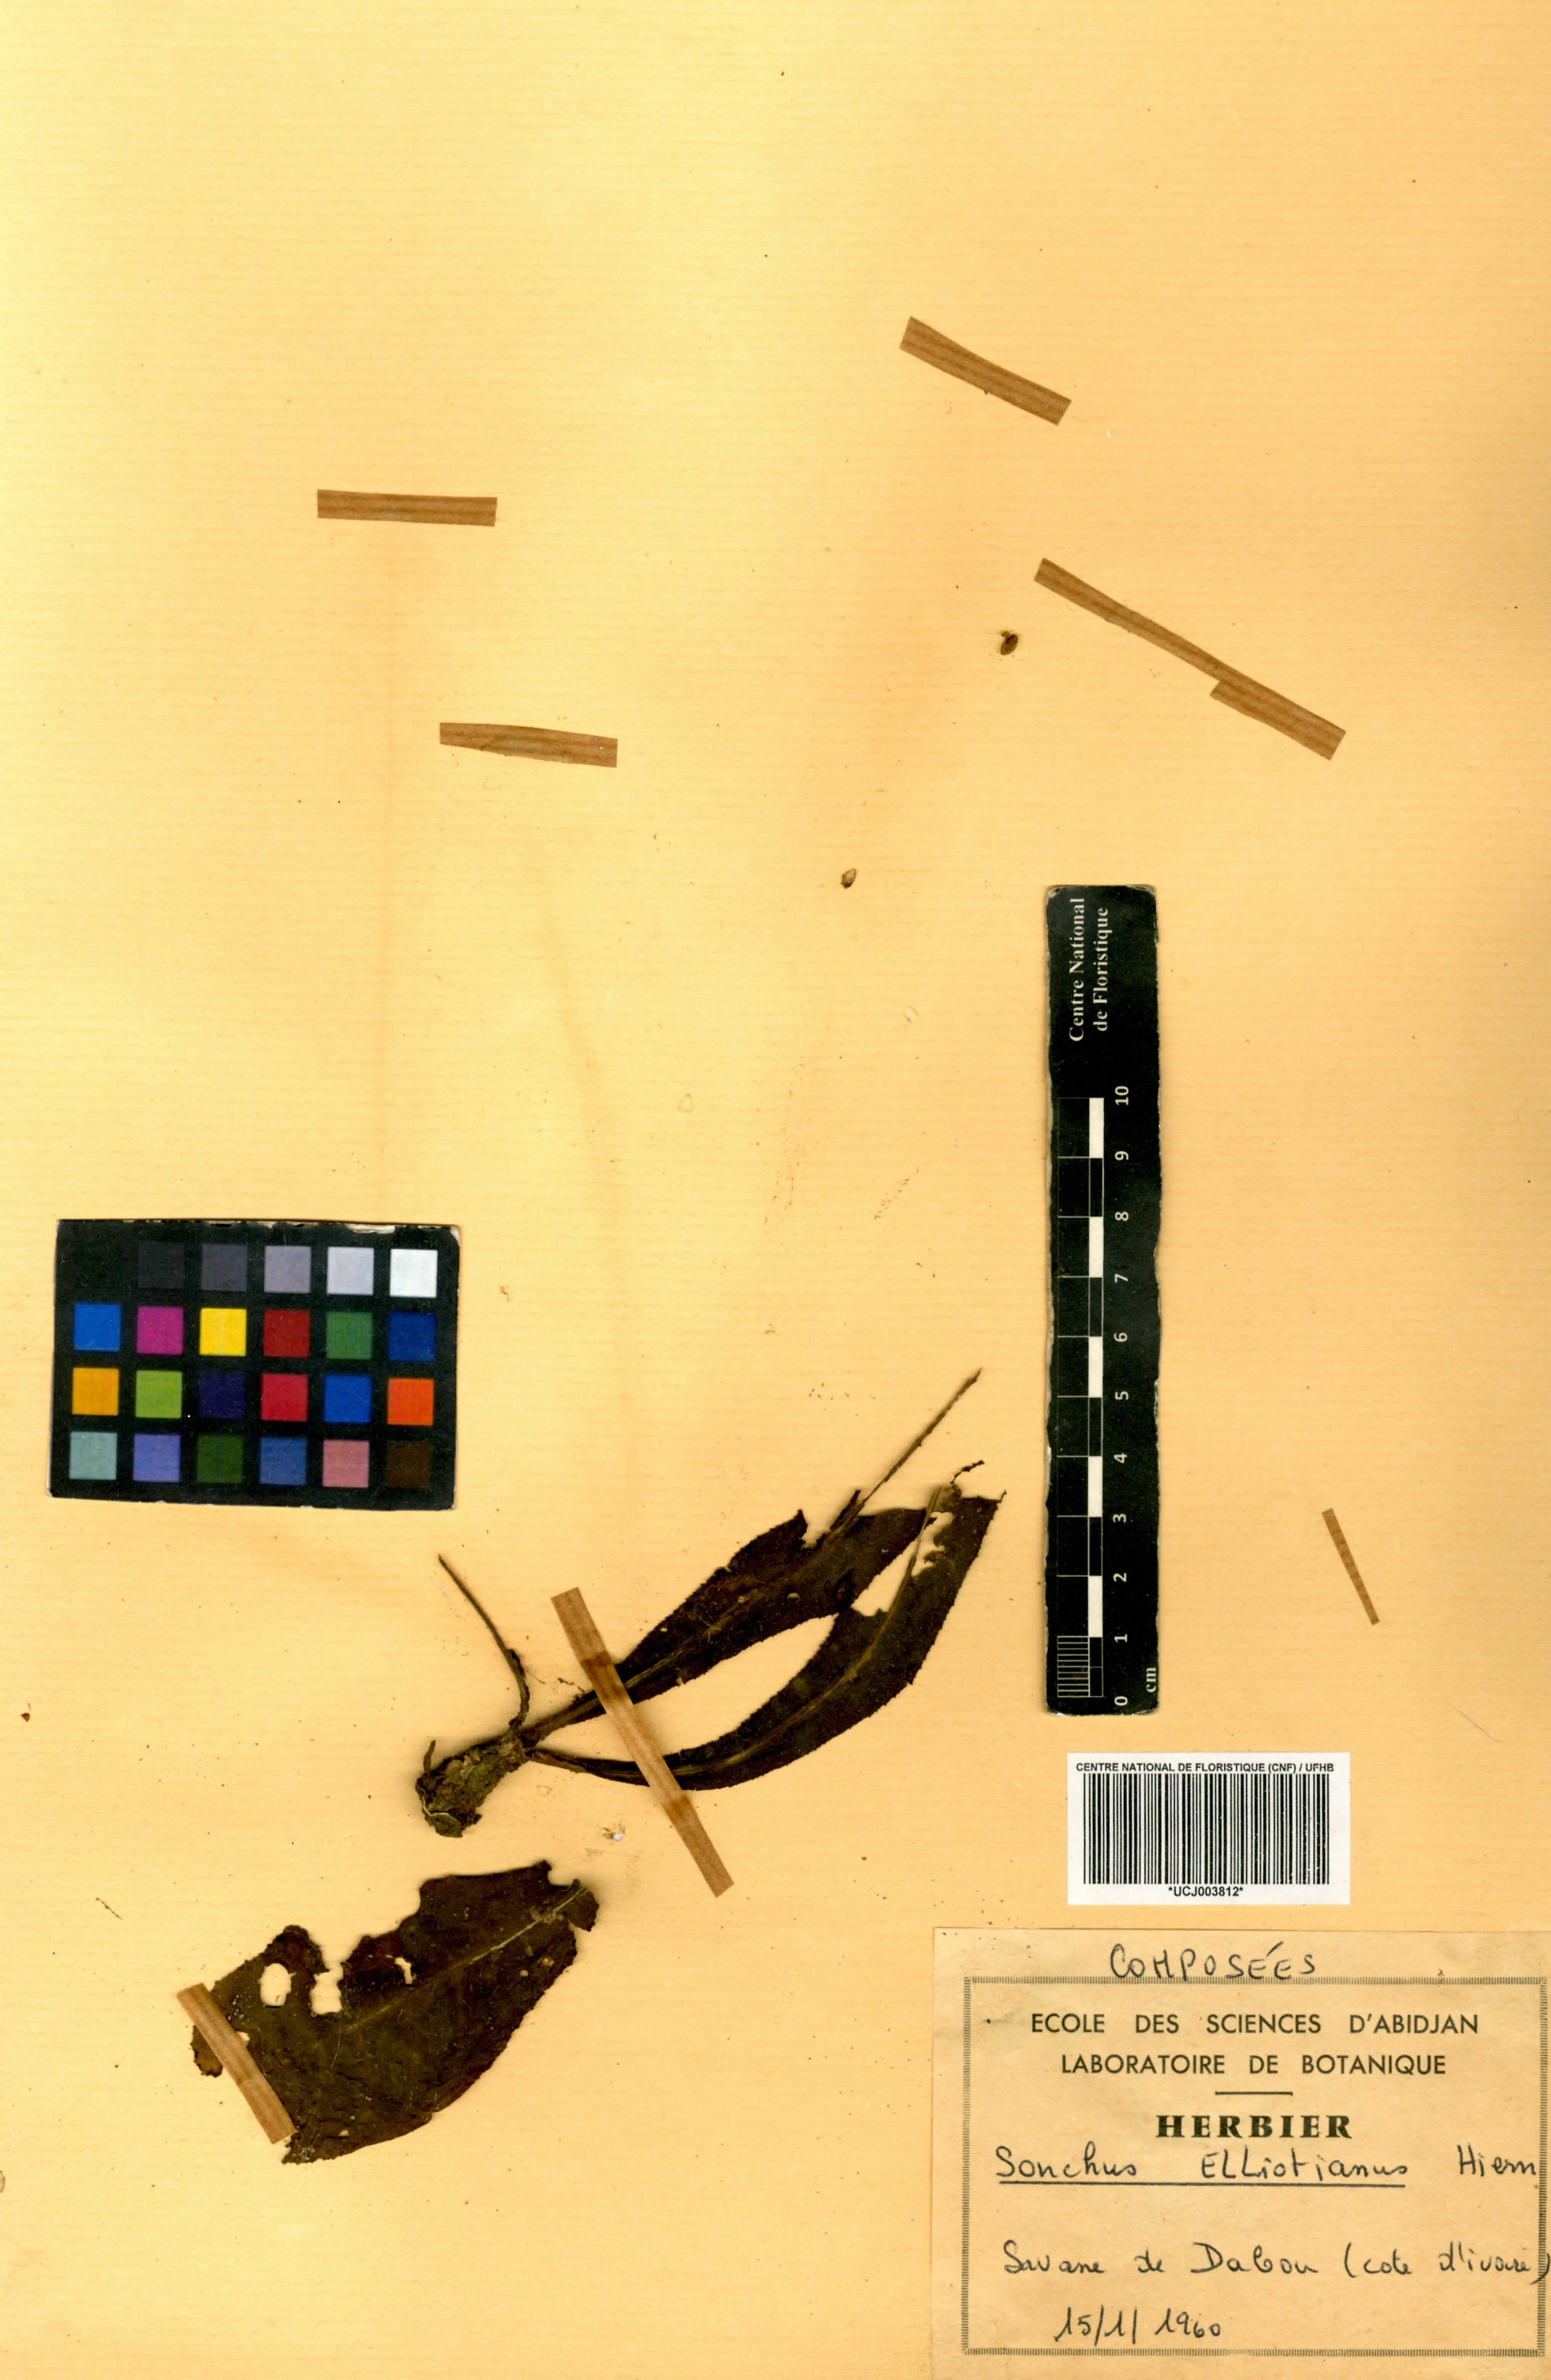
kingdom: Plantae
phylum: Tracheophyta
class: Magnoliopsida
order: Asterales
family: Asteraceae
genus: Launaea
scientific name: Launaea nana
